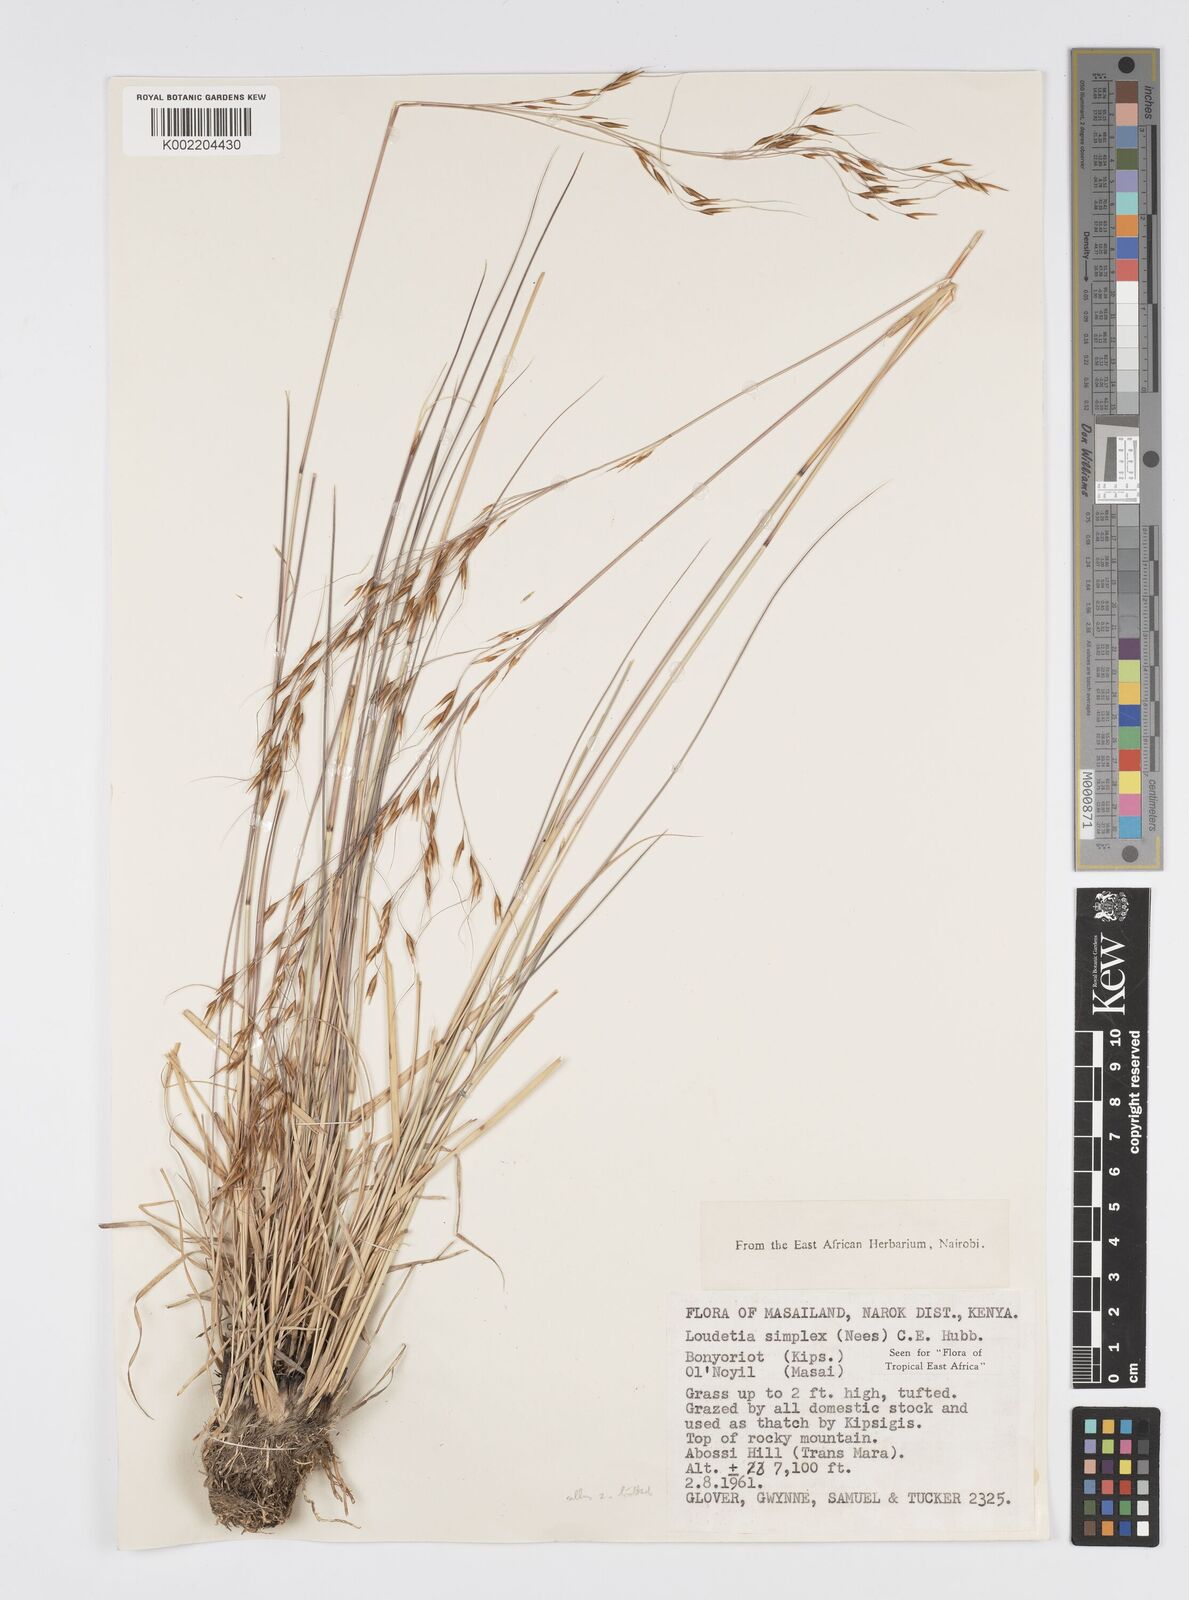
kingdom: Plantae
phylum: Tracheophyta
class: Liliopsida
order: Poales
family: Poaceae
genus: Loudetia
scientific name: Loudetia simplex
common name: Common russet grass
